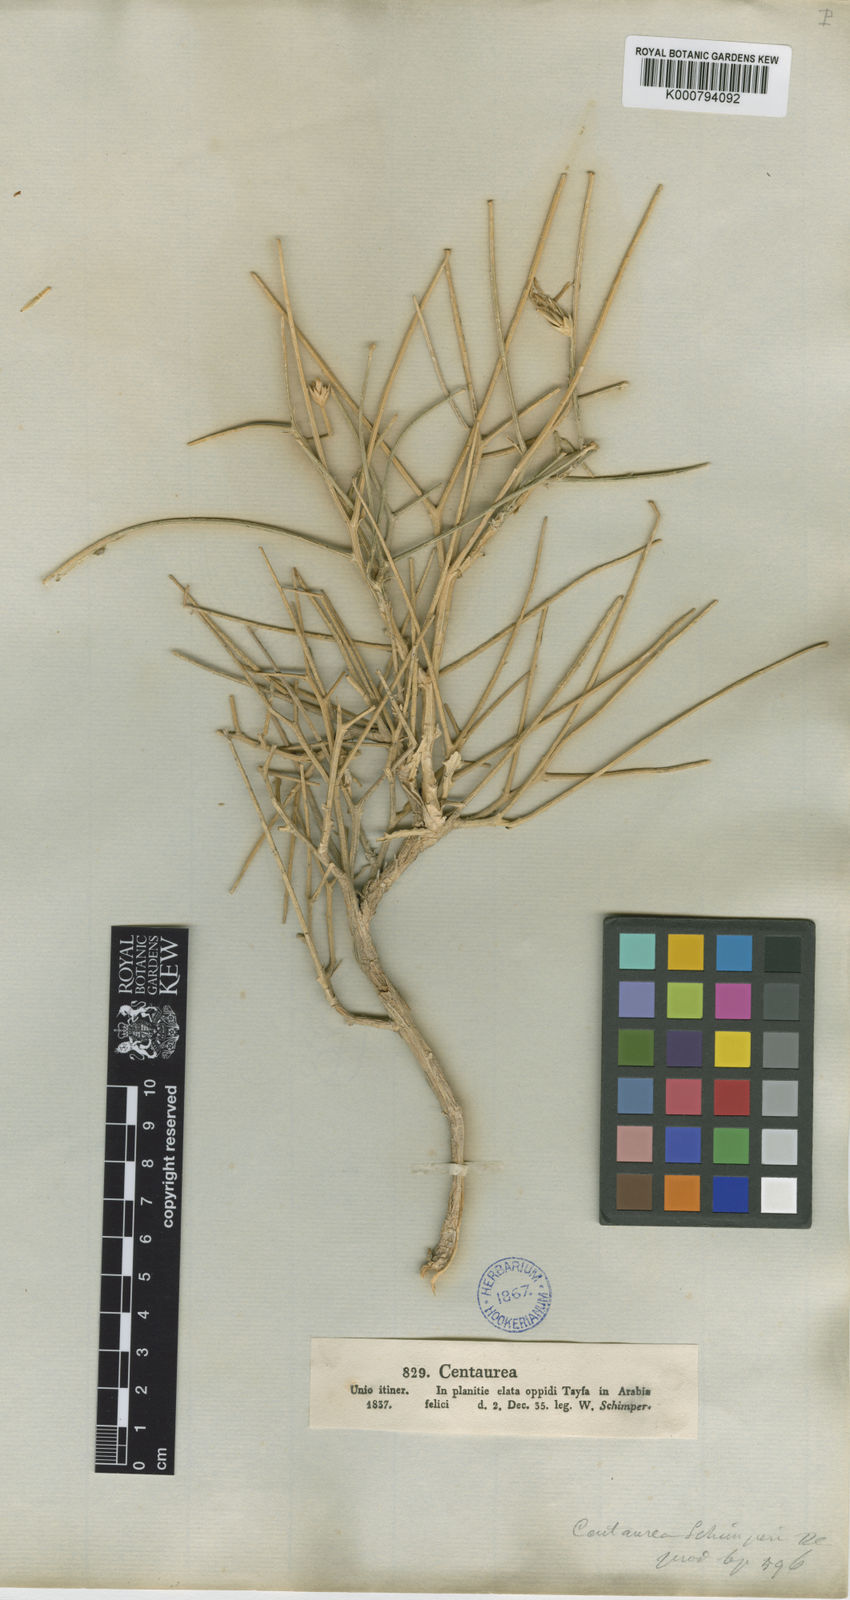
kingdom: Plantae
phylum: Tracheophyta
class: Magnoliopsida
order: Asterales
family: Asteraceae
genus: Centaurea
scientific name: Centaurea schimperi
